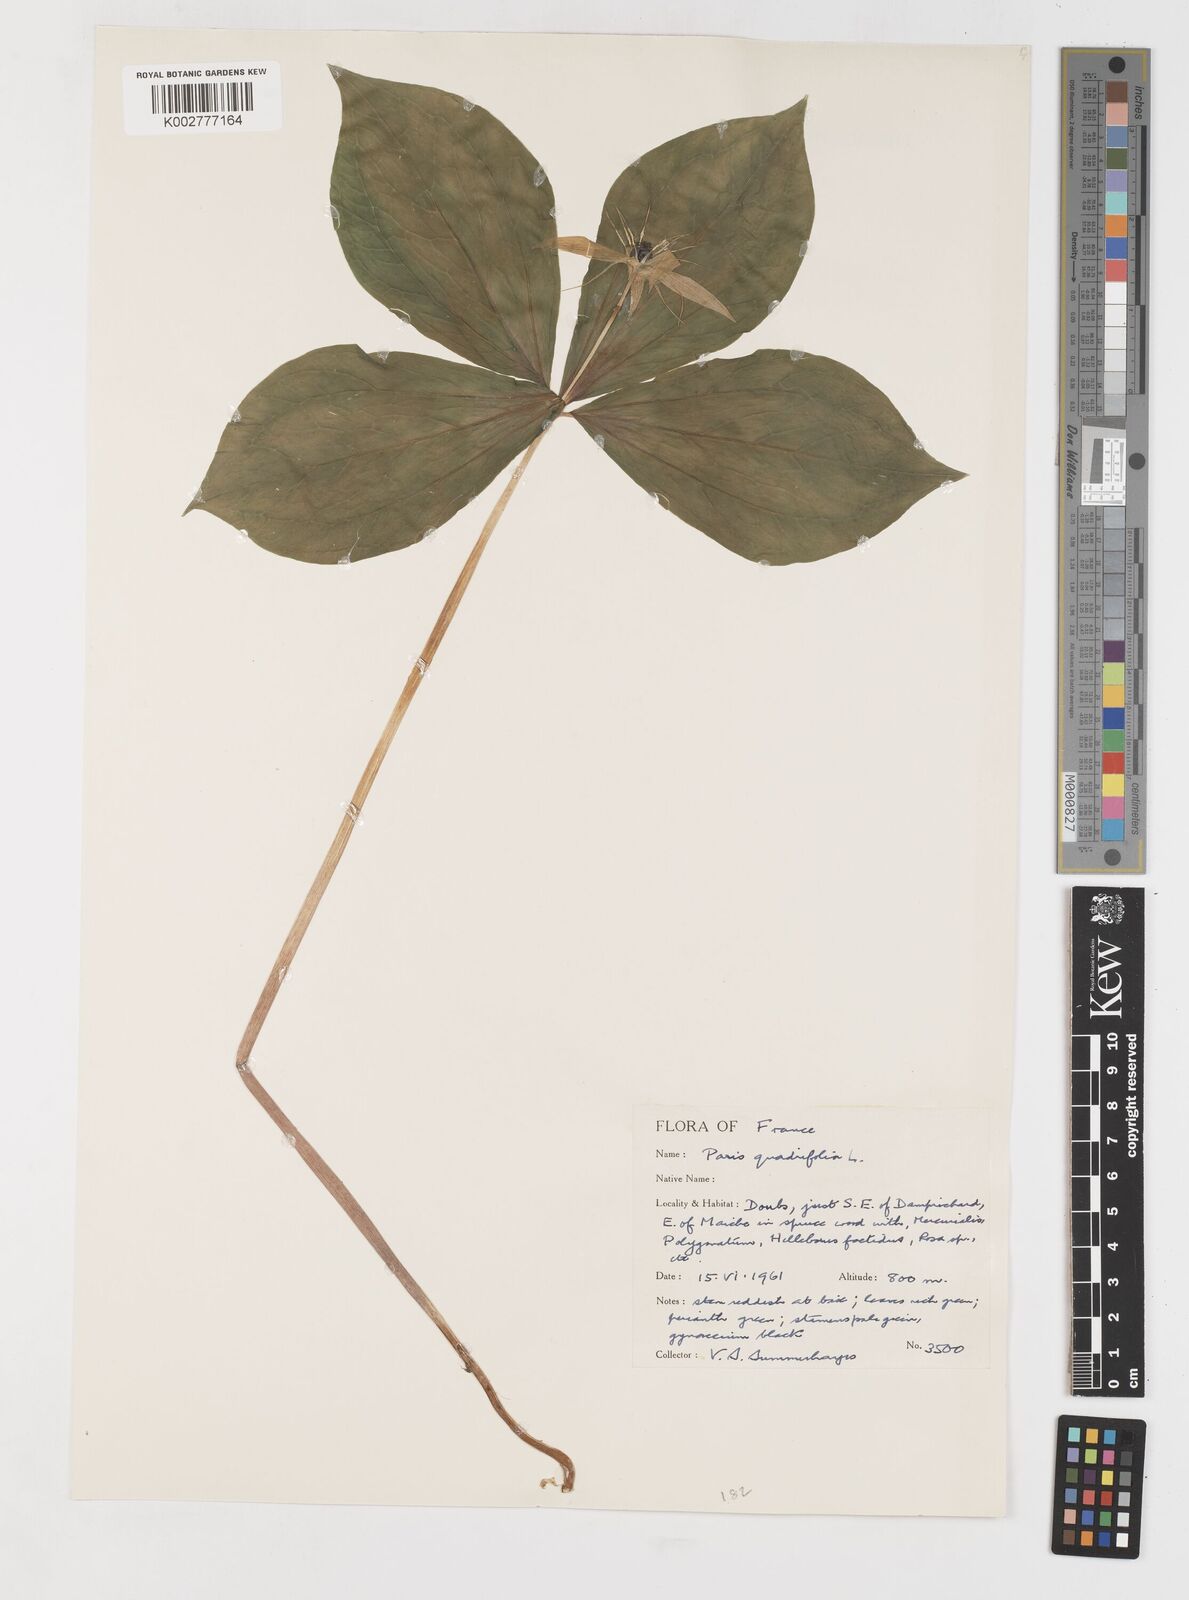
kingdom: Plantae
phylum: Tracheophyta
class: Liliopsida
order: Liliales
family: Melanthiaceae
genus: Paris
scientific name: Paris quadrifolia
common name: Herb-paris
